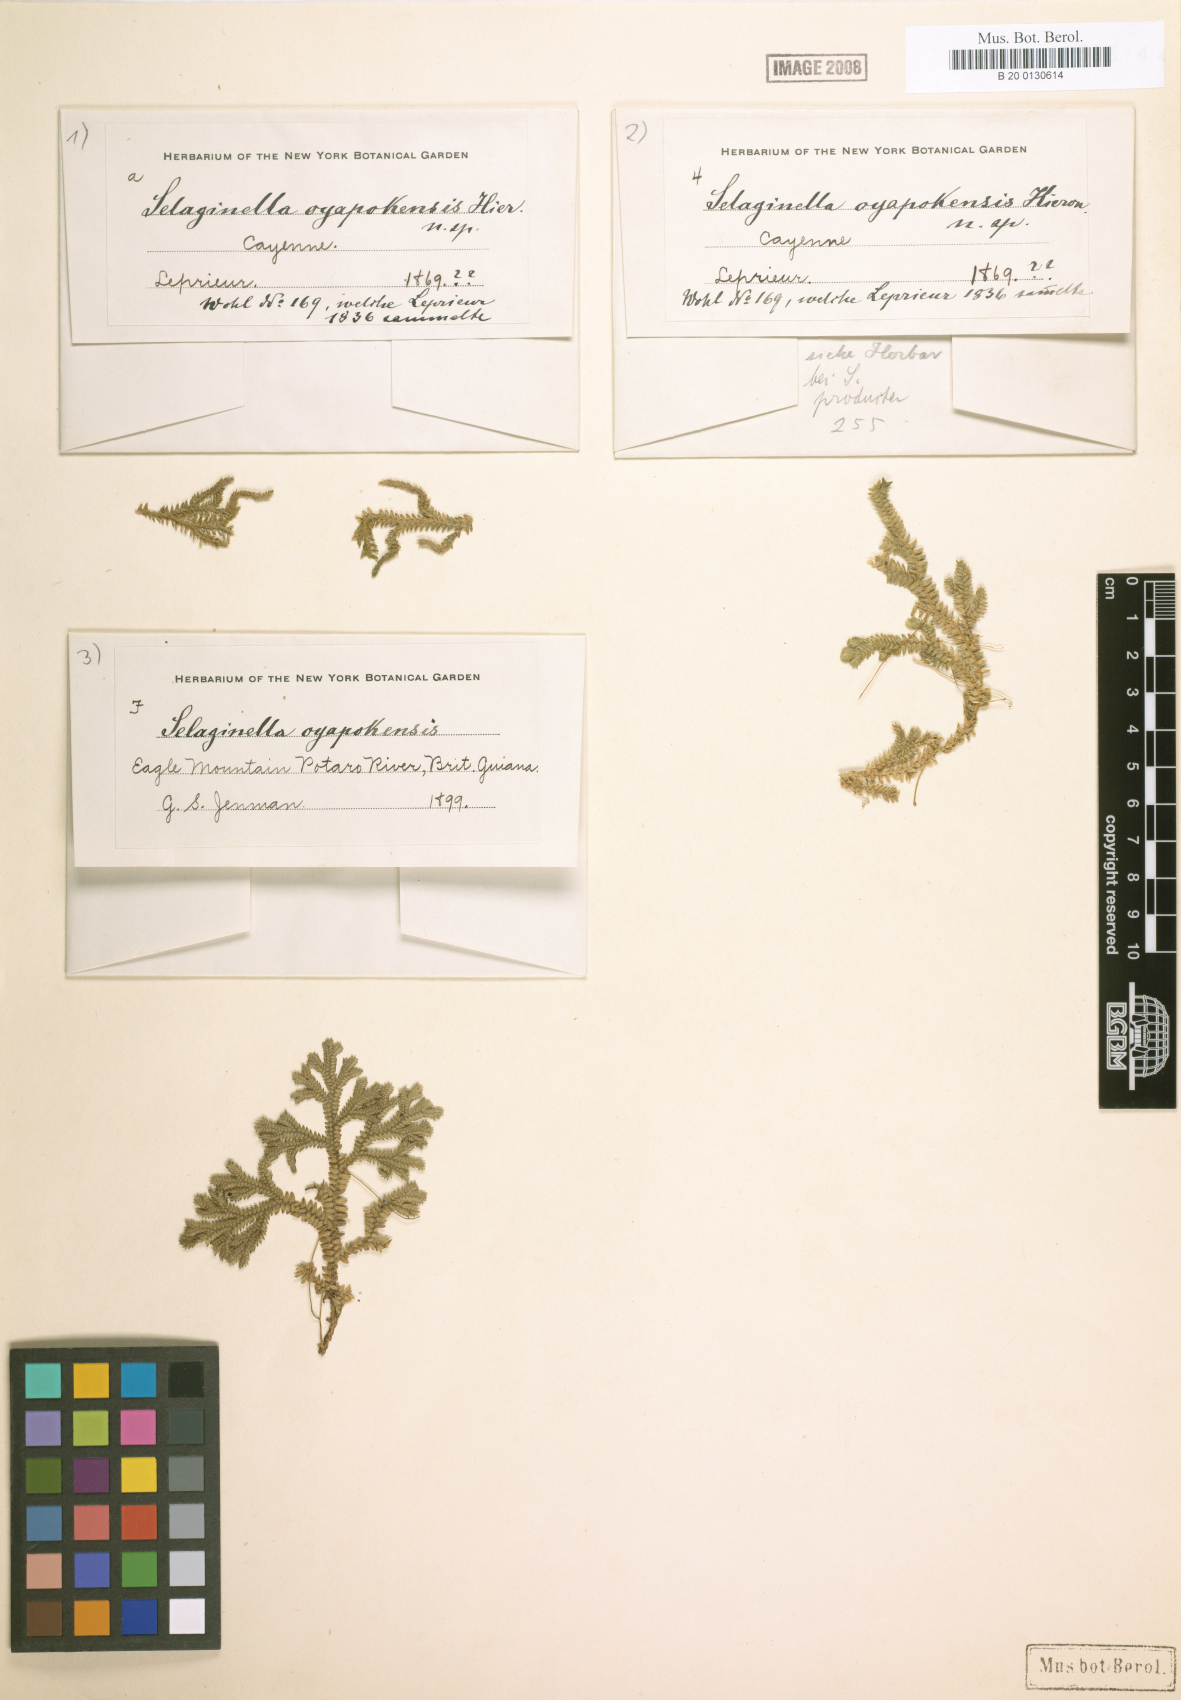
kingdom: Plantae
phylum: Tracheophyta
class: Lycopodiopsida
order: Selaginellales
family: Selaginellaceae
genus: Selaginella
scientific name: Selaginella
